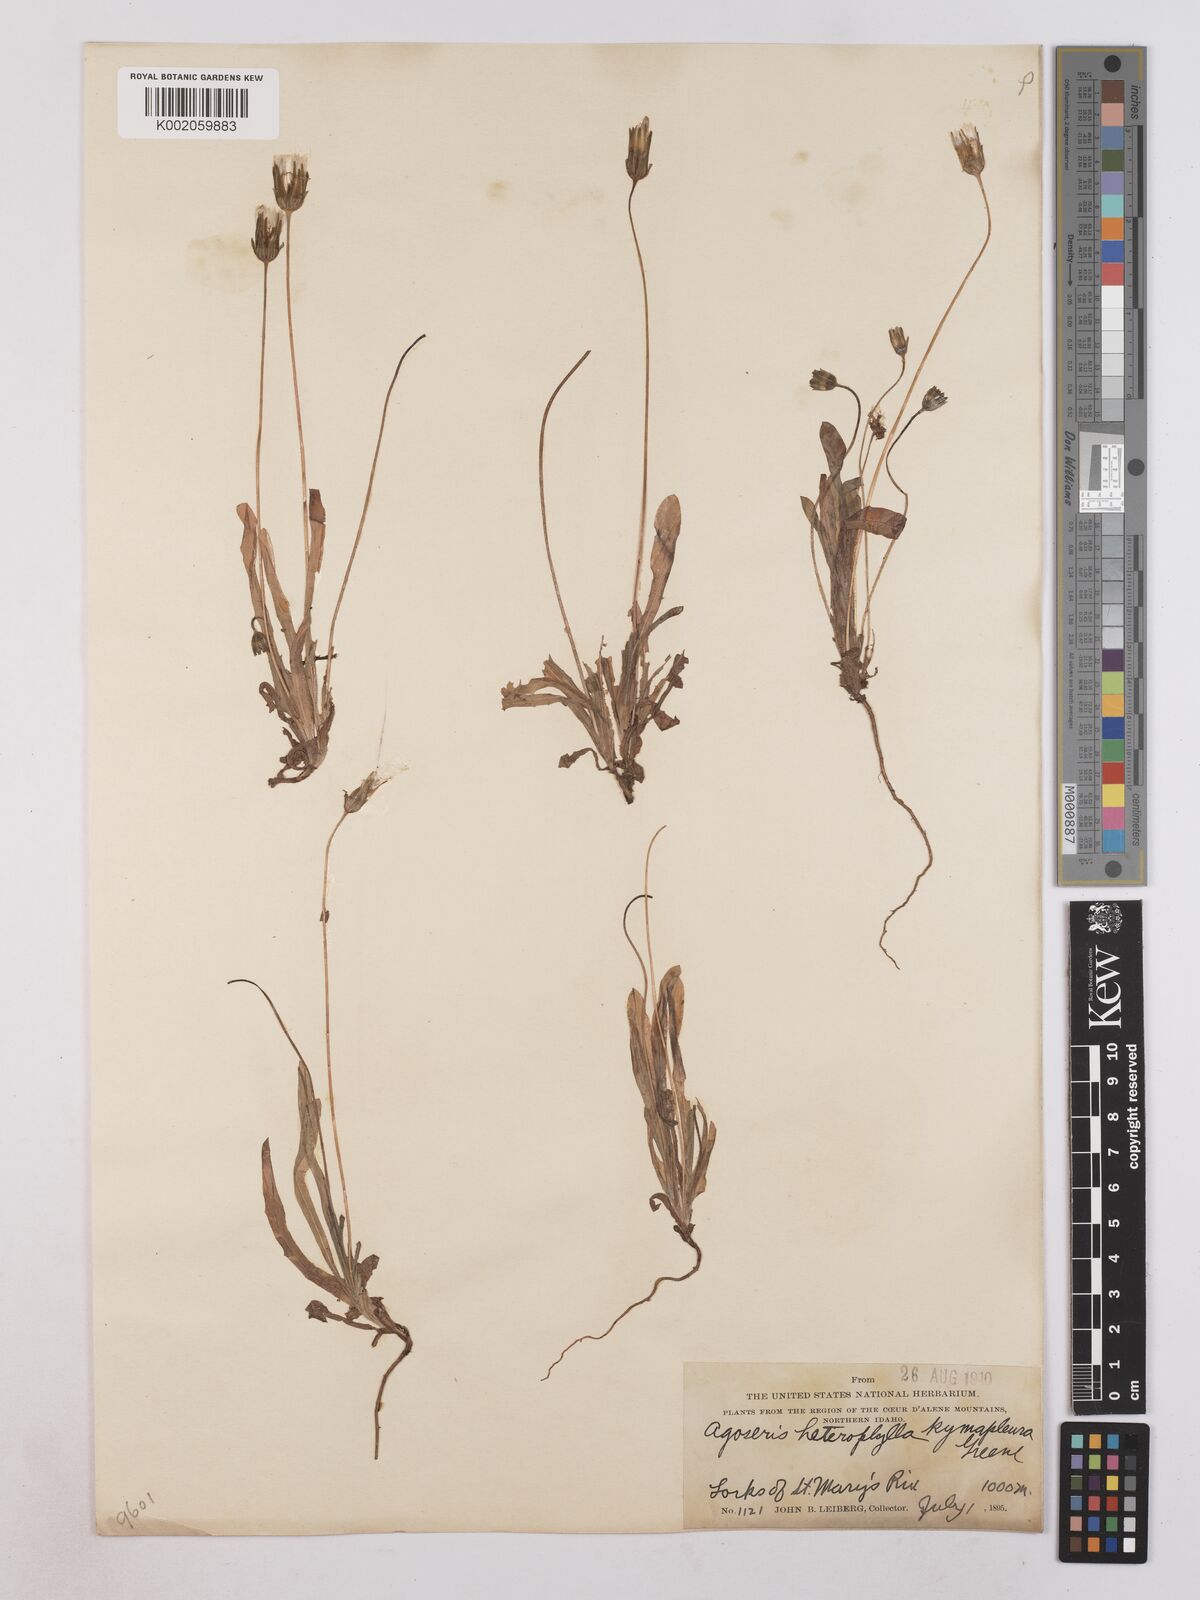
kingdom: Plantae
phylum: Tracheophyta
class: Magnoliopsida
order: Asterales
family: Asteraceae
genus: Agoseris
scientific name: Agoseris heterophylla
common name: Annual agoseris
